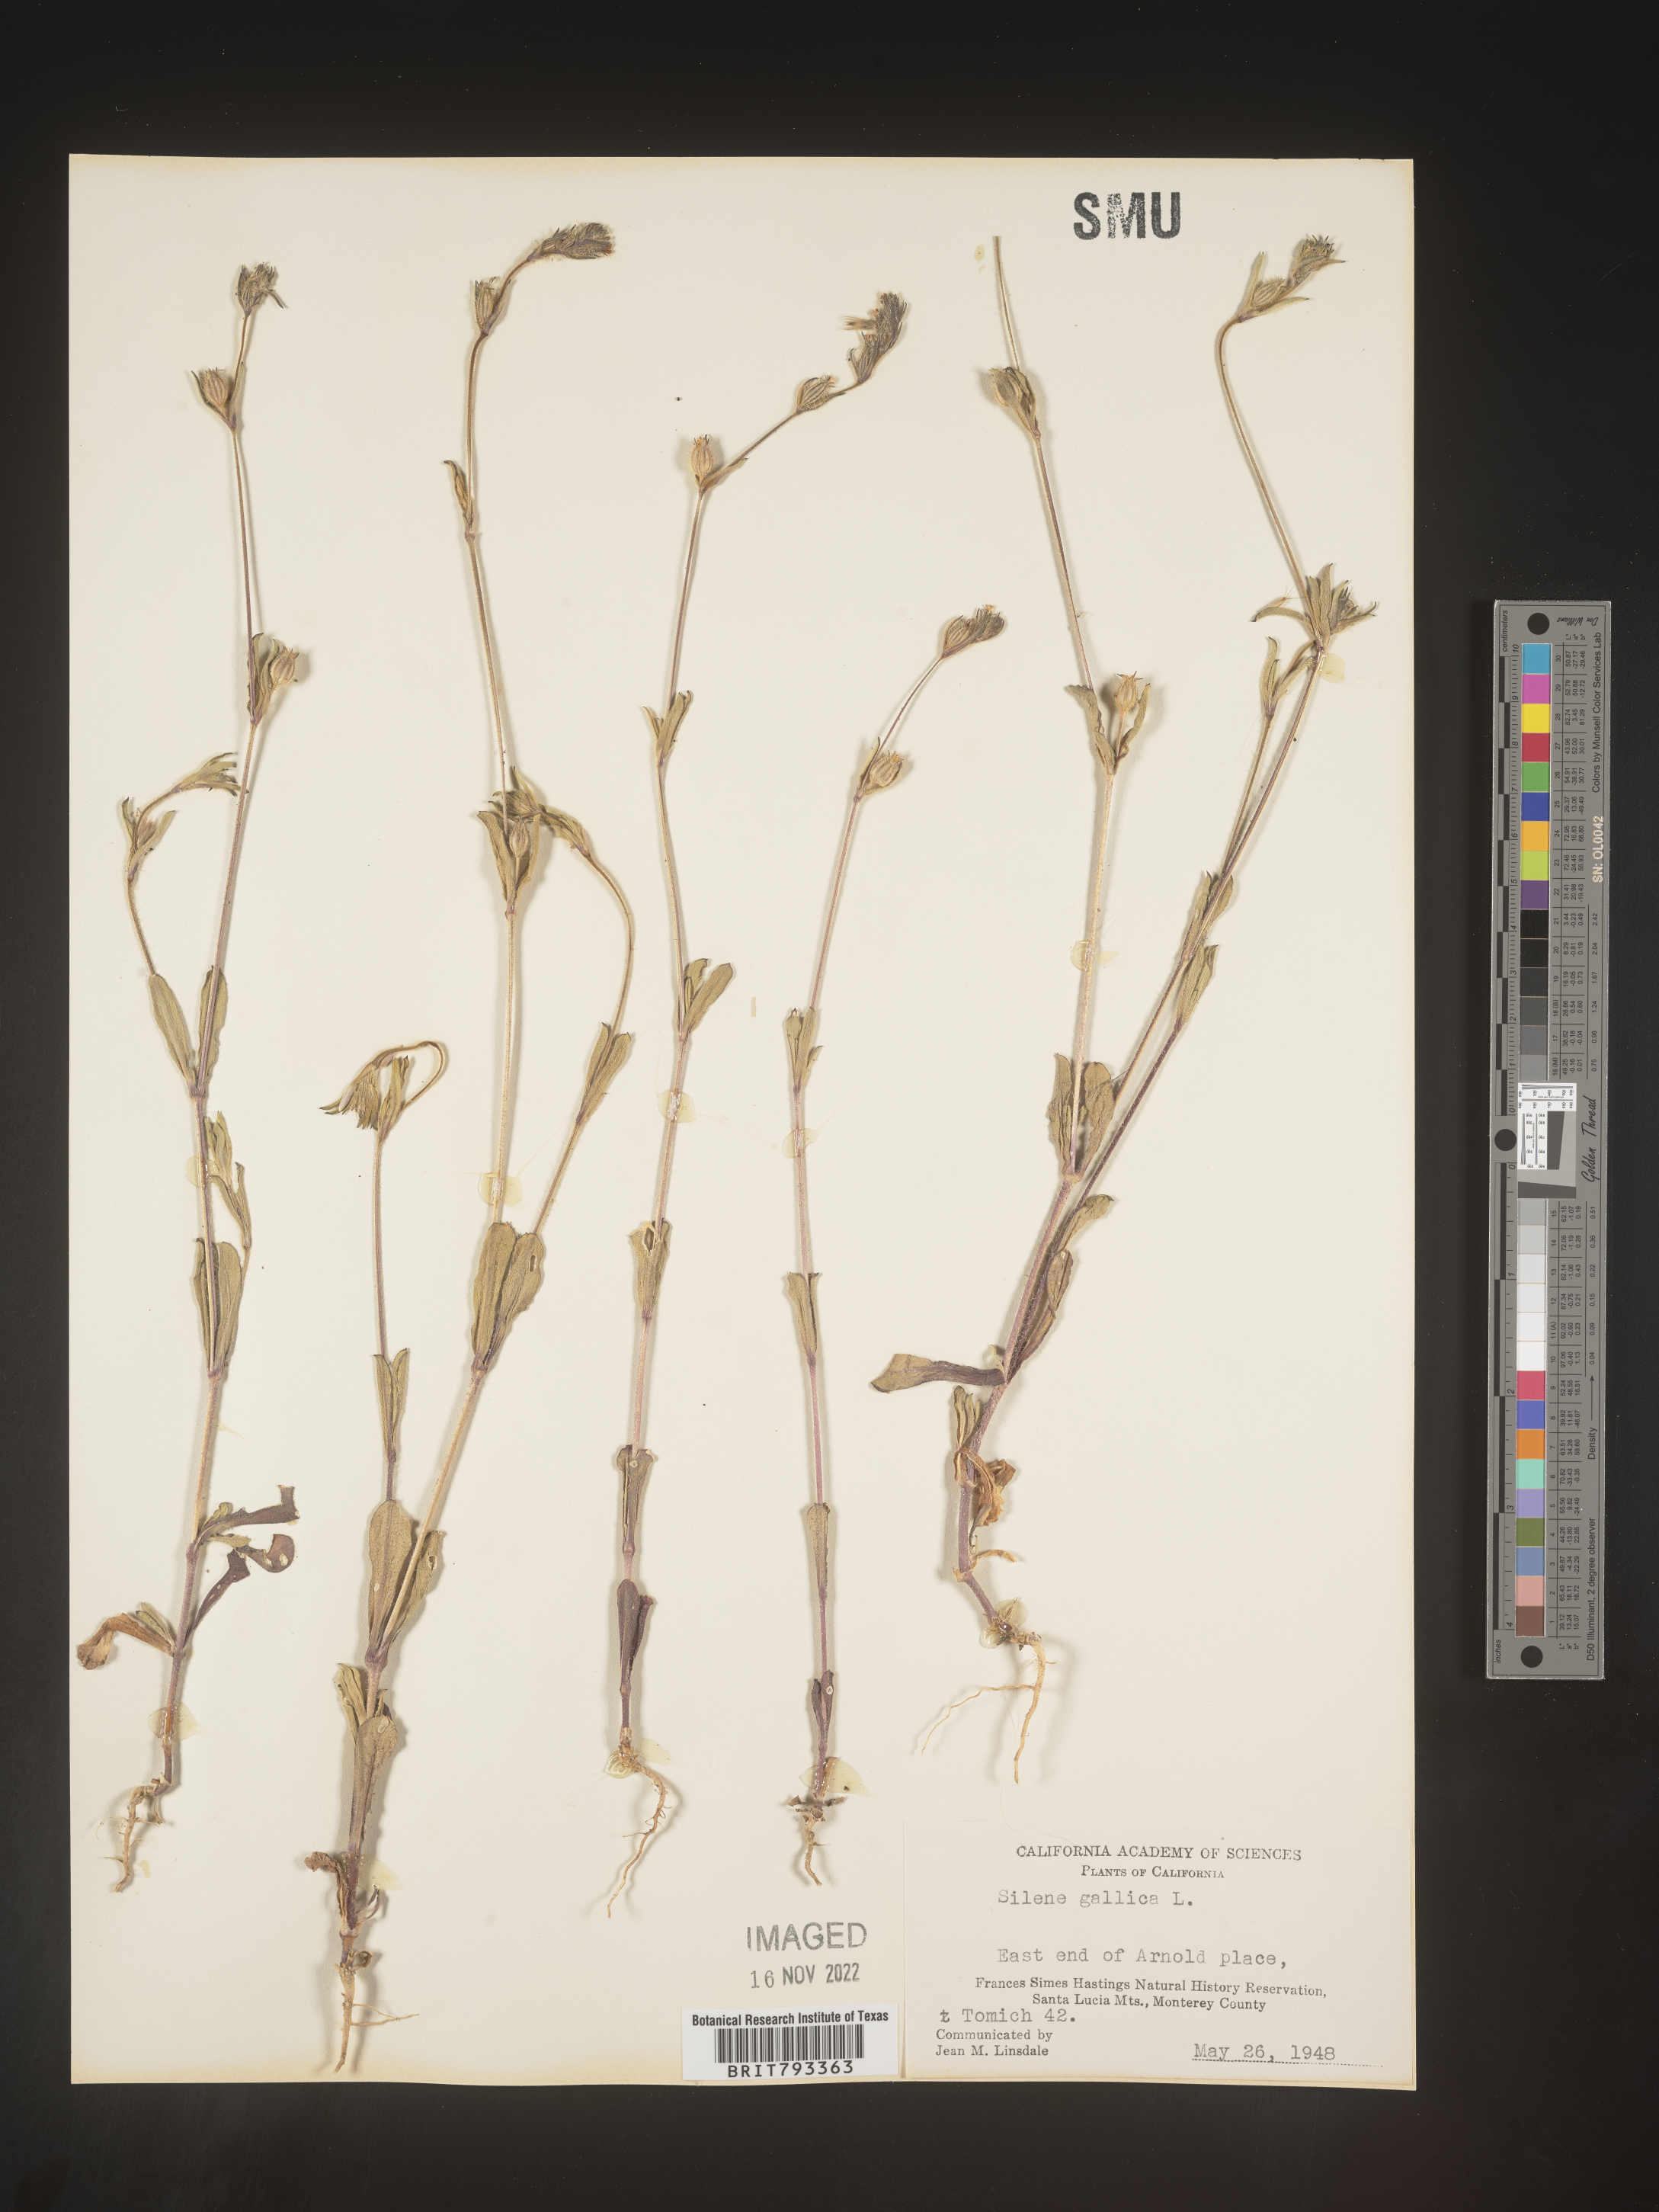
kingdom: Plantae
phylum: Tracheophyta
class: Magnoliopsida
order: Caryophyllales
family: Caryophyllaceae
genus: Silene
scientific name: Silene gallica
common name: Small-flowered catchfly
